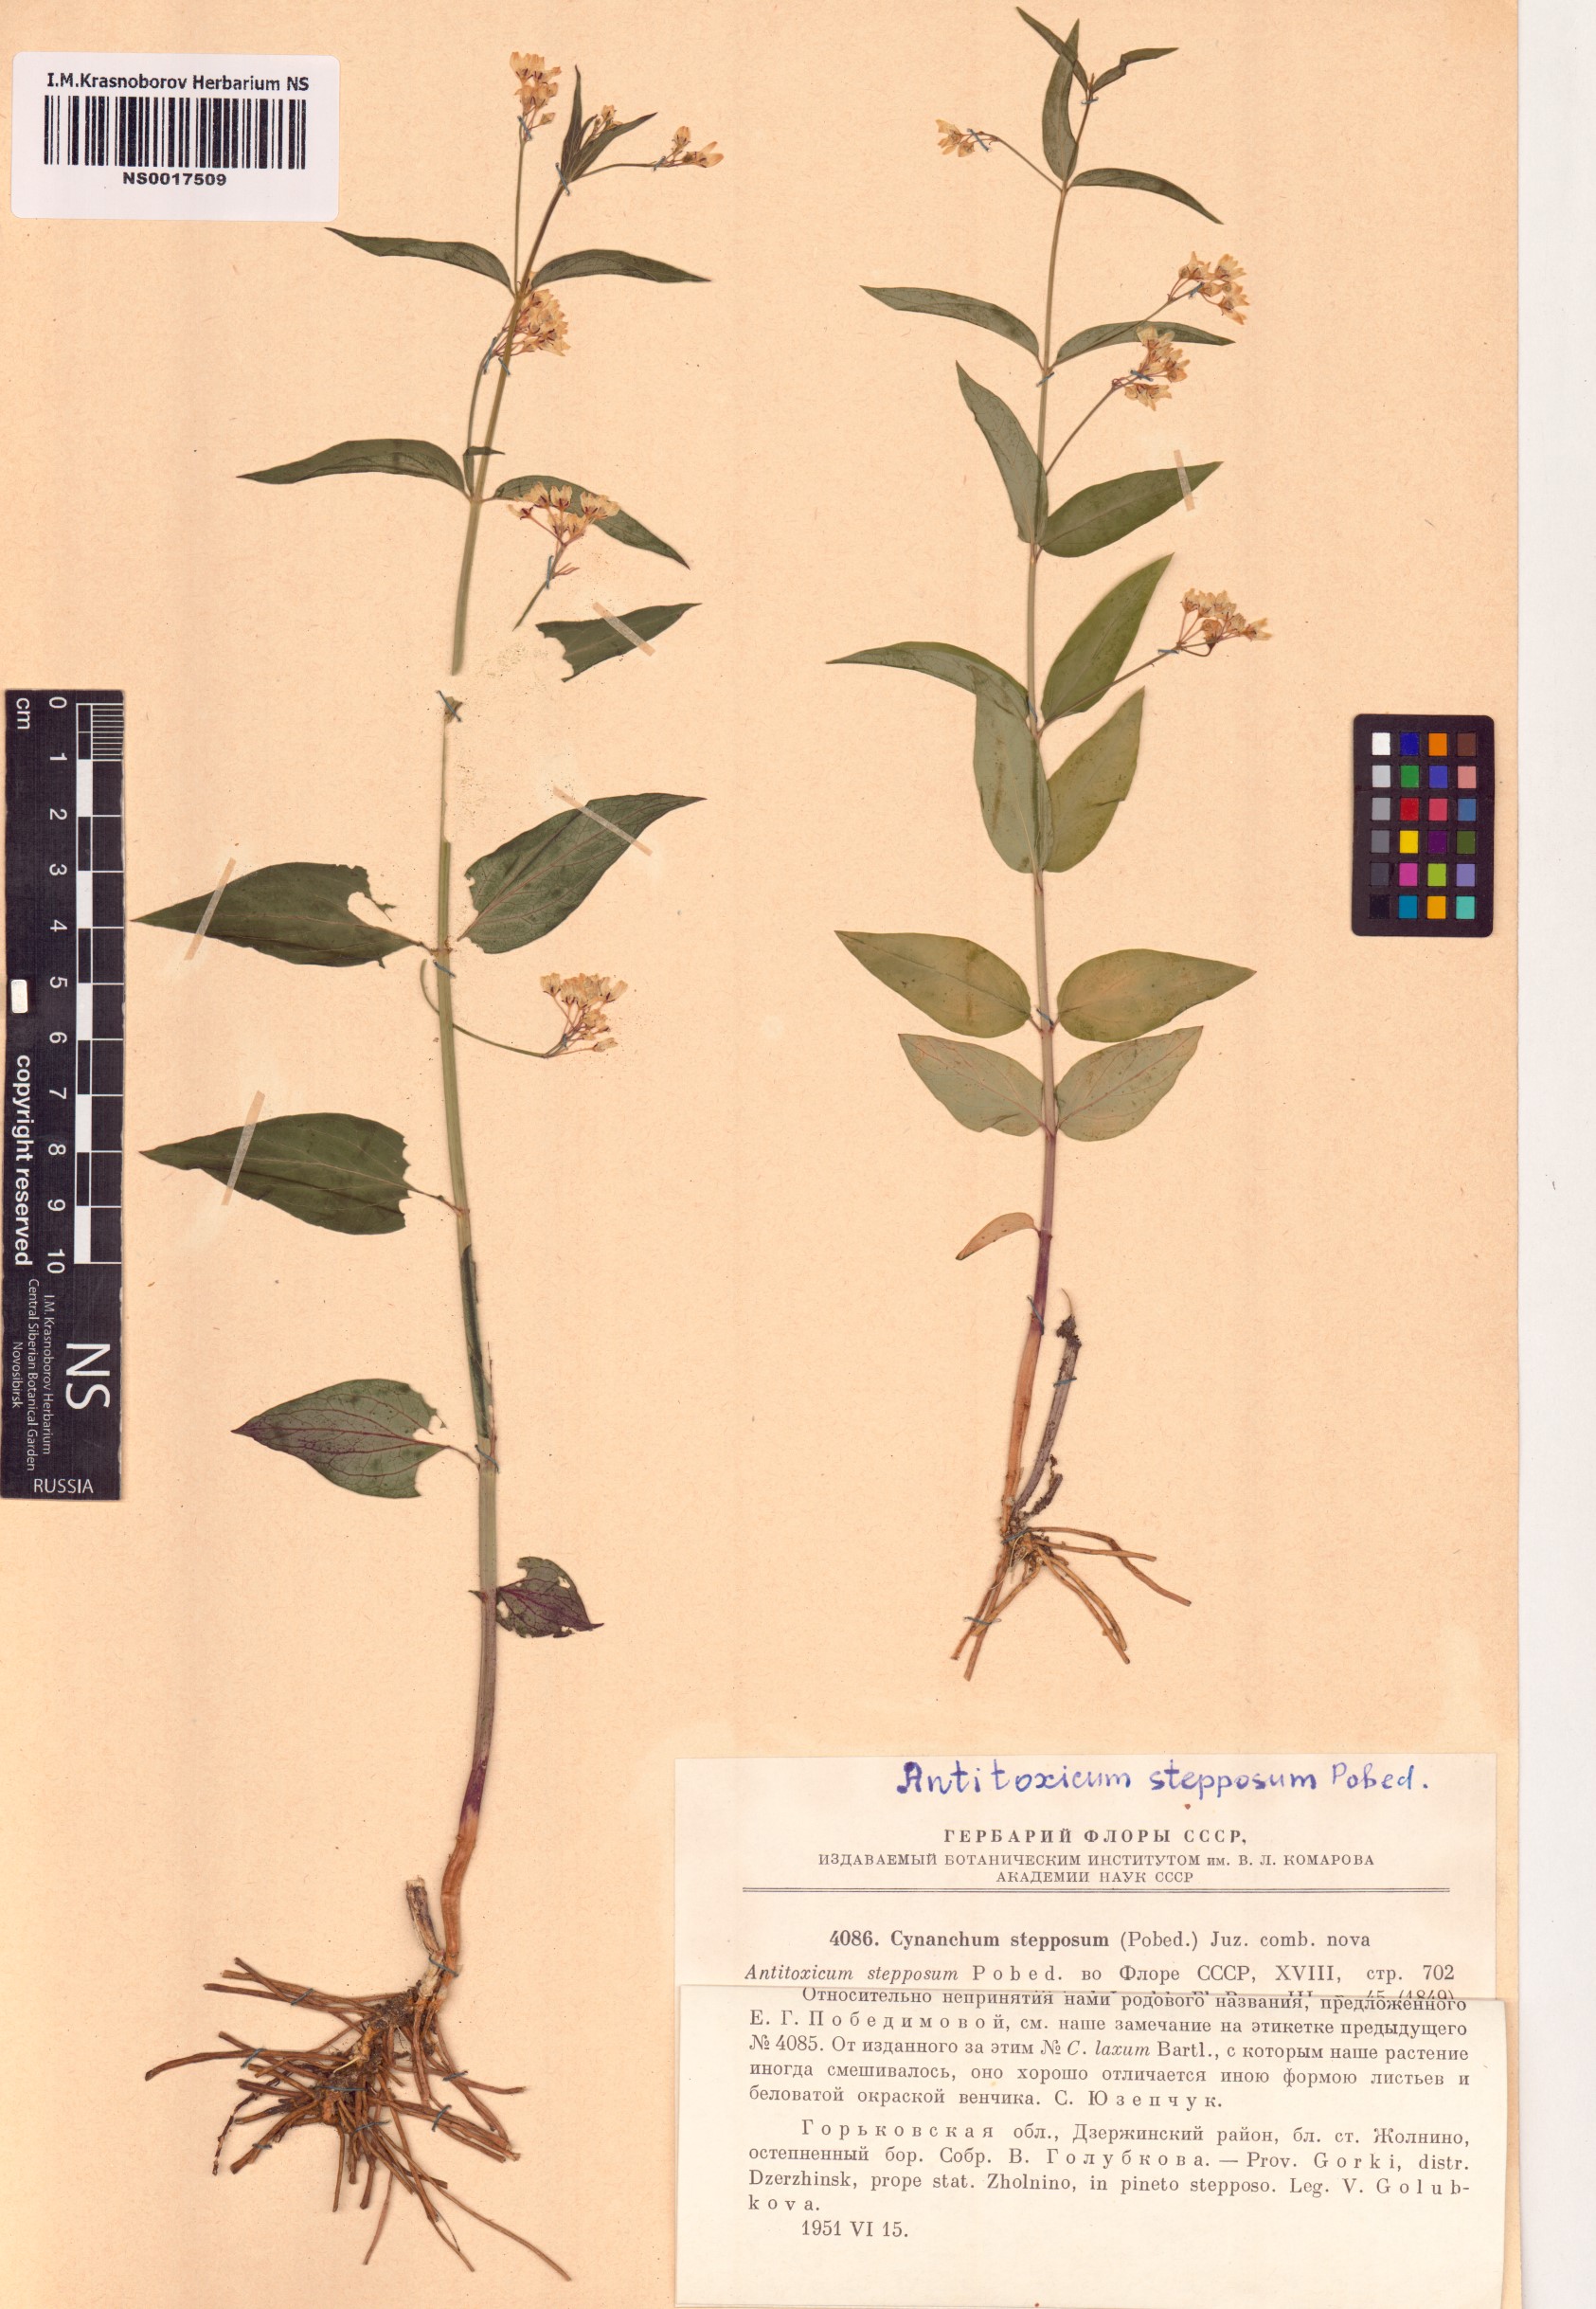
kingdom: Plantae
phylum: Tracheophyta
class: Magnoliopsida
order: Gentianales
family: Apocynaceae
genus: Vincetoxicum
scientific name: Vincetoxicum hirundinaria
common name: White swallowwort
